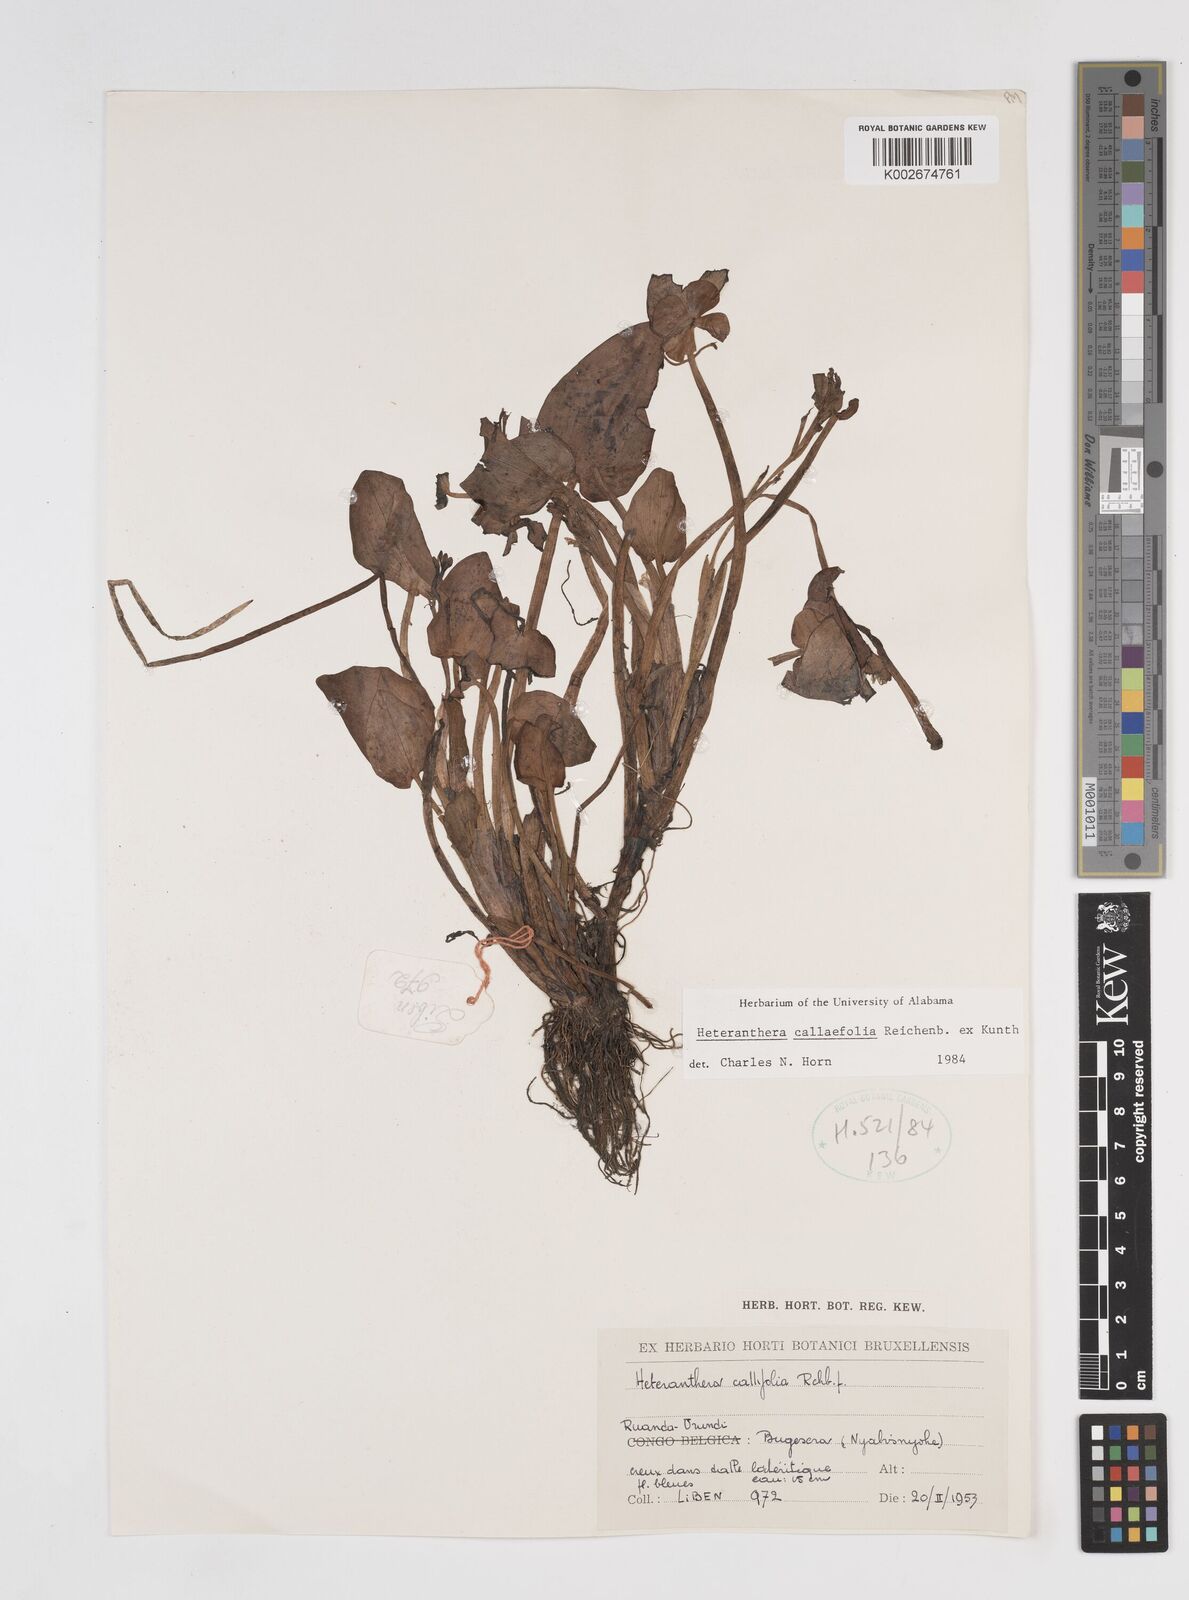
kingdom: Plantae
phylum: Tracheophyta
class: Liliopsida
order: Commelinales
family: Pontederiaceae
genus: Heteranthera
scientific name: Heteranthera callifolia
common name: Mud plantain
